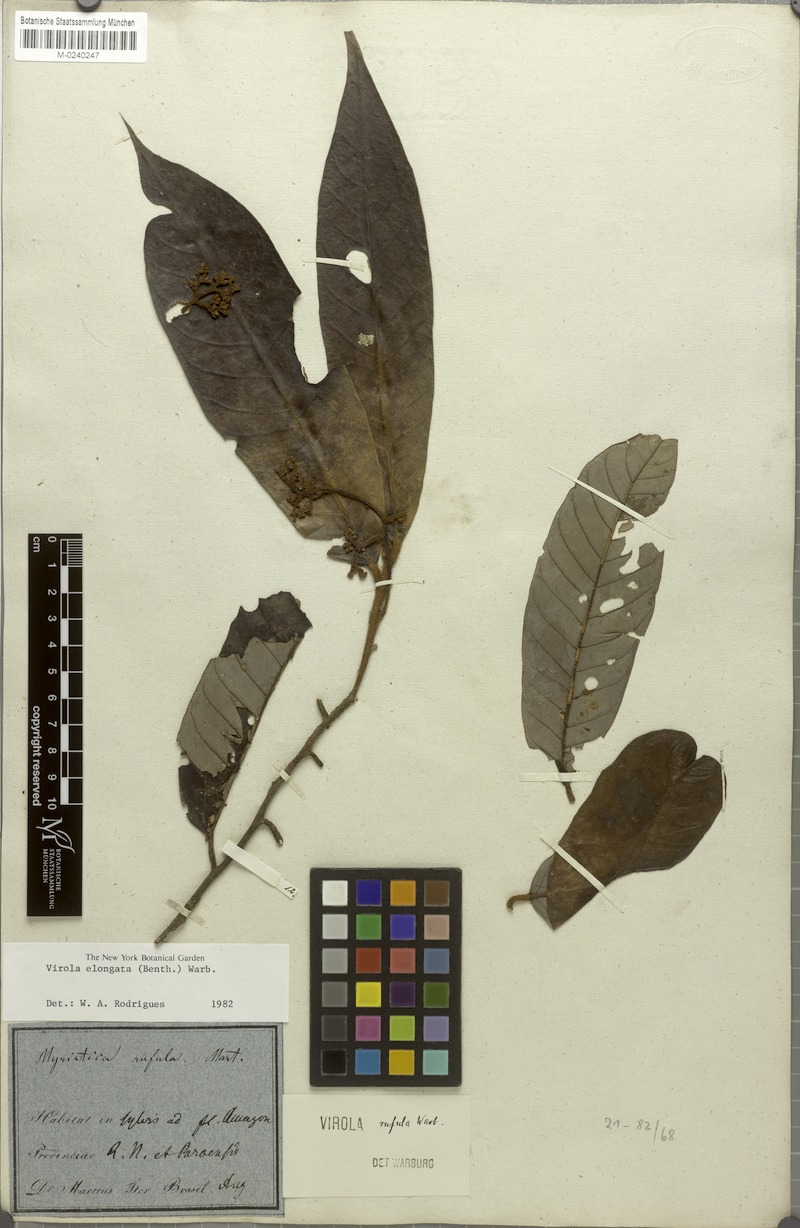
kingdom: Plantae
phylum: Tracheophyta
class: Magnoliopsida
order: Magnoliales
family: Myristicaceae
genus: Virola
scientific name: Virola elongata
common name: Sacred virola
